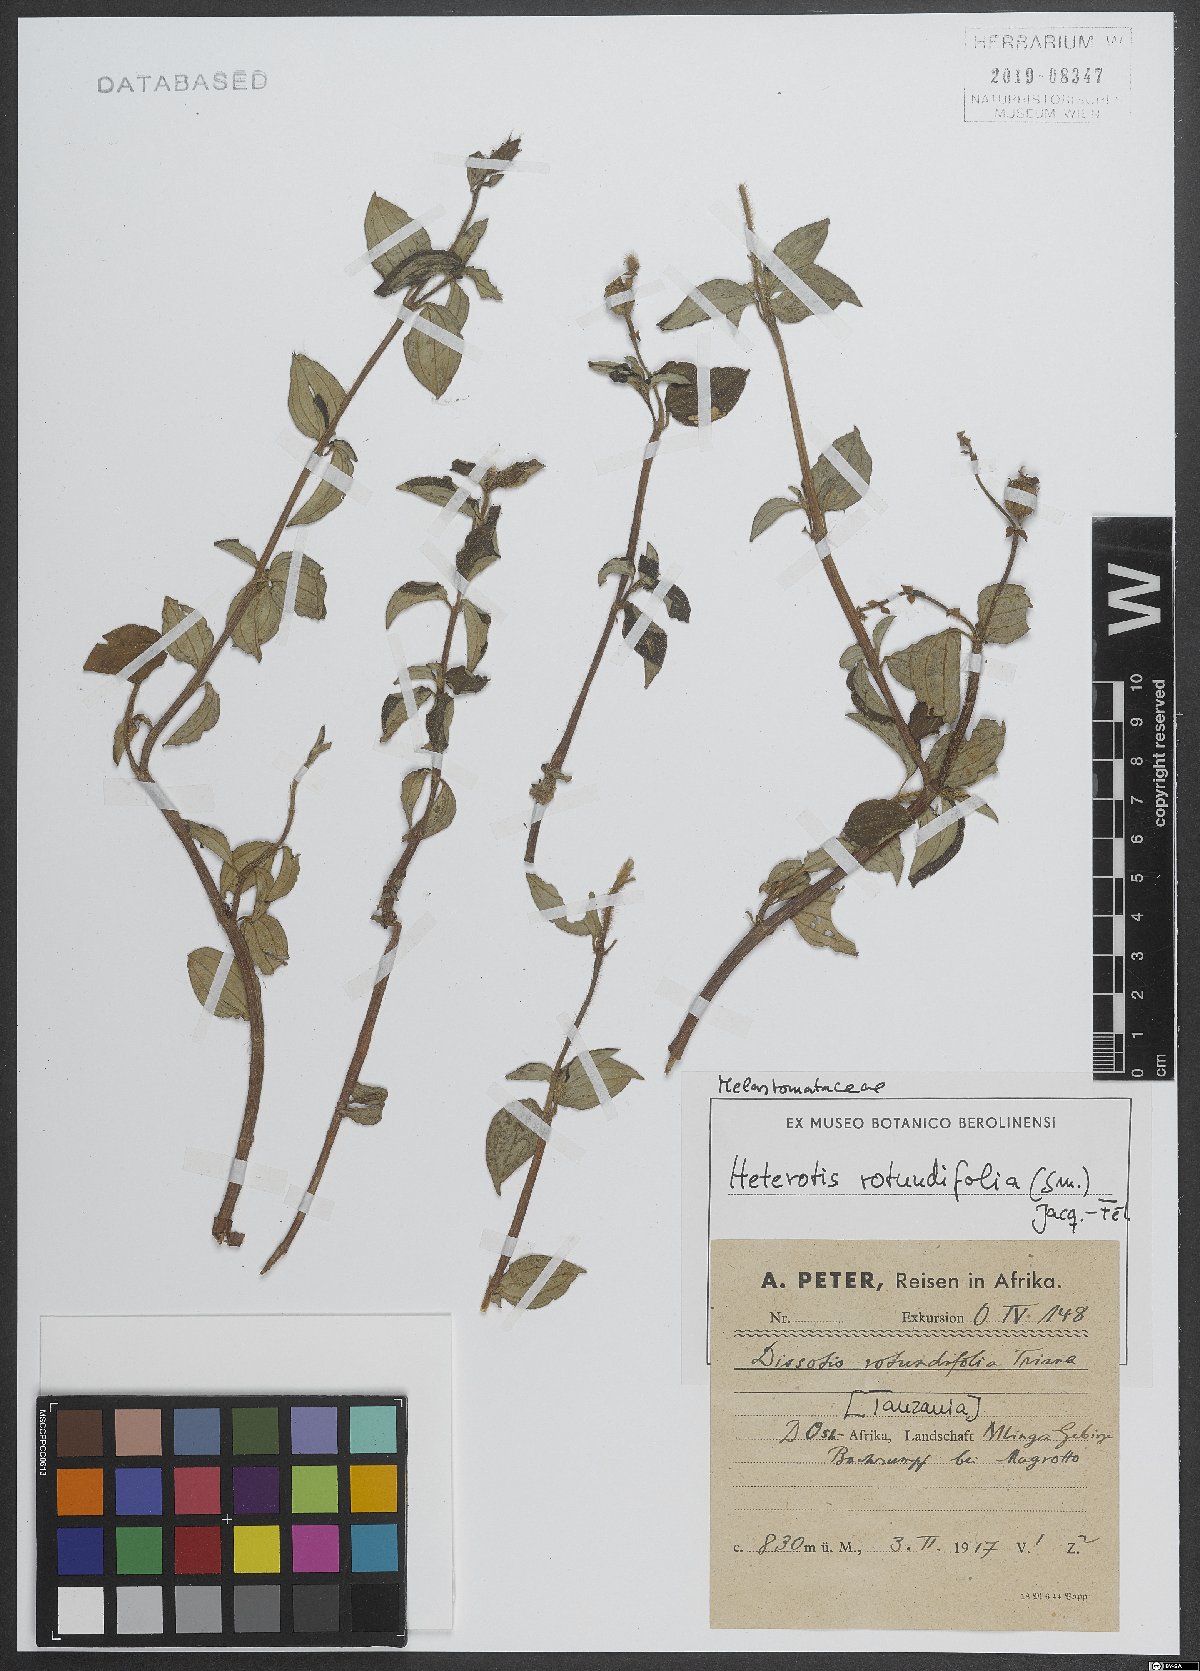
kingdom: Plantae
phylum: Tracheophyta
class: Magnoliopsida
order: Myrtales
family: Melastomataceae
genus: Heterotis
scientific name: Heterotis rotundifolia
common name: Pinklady
